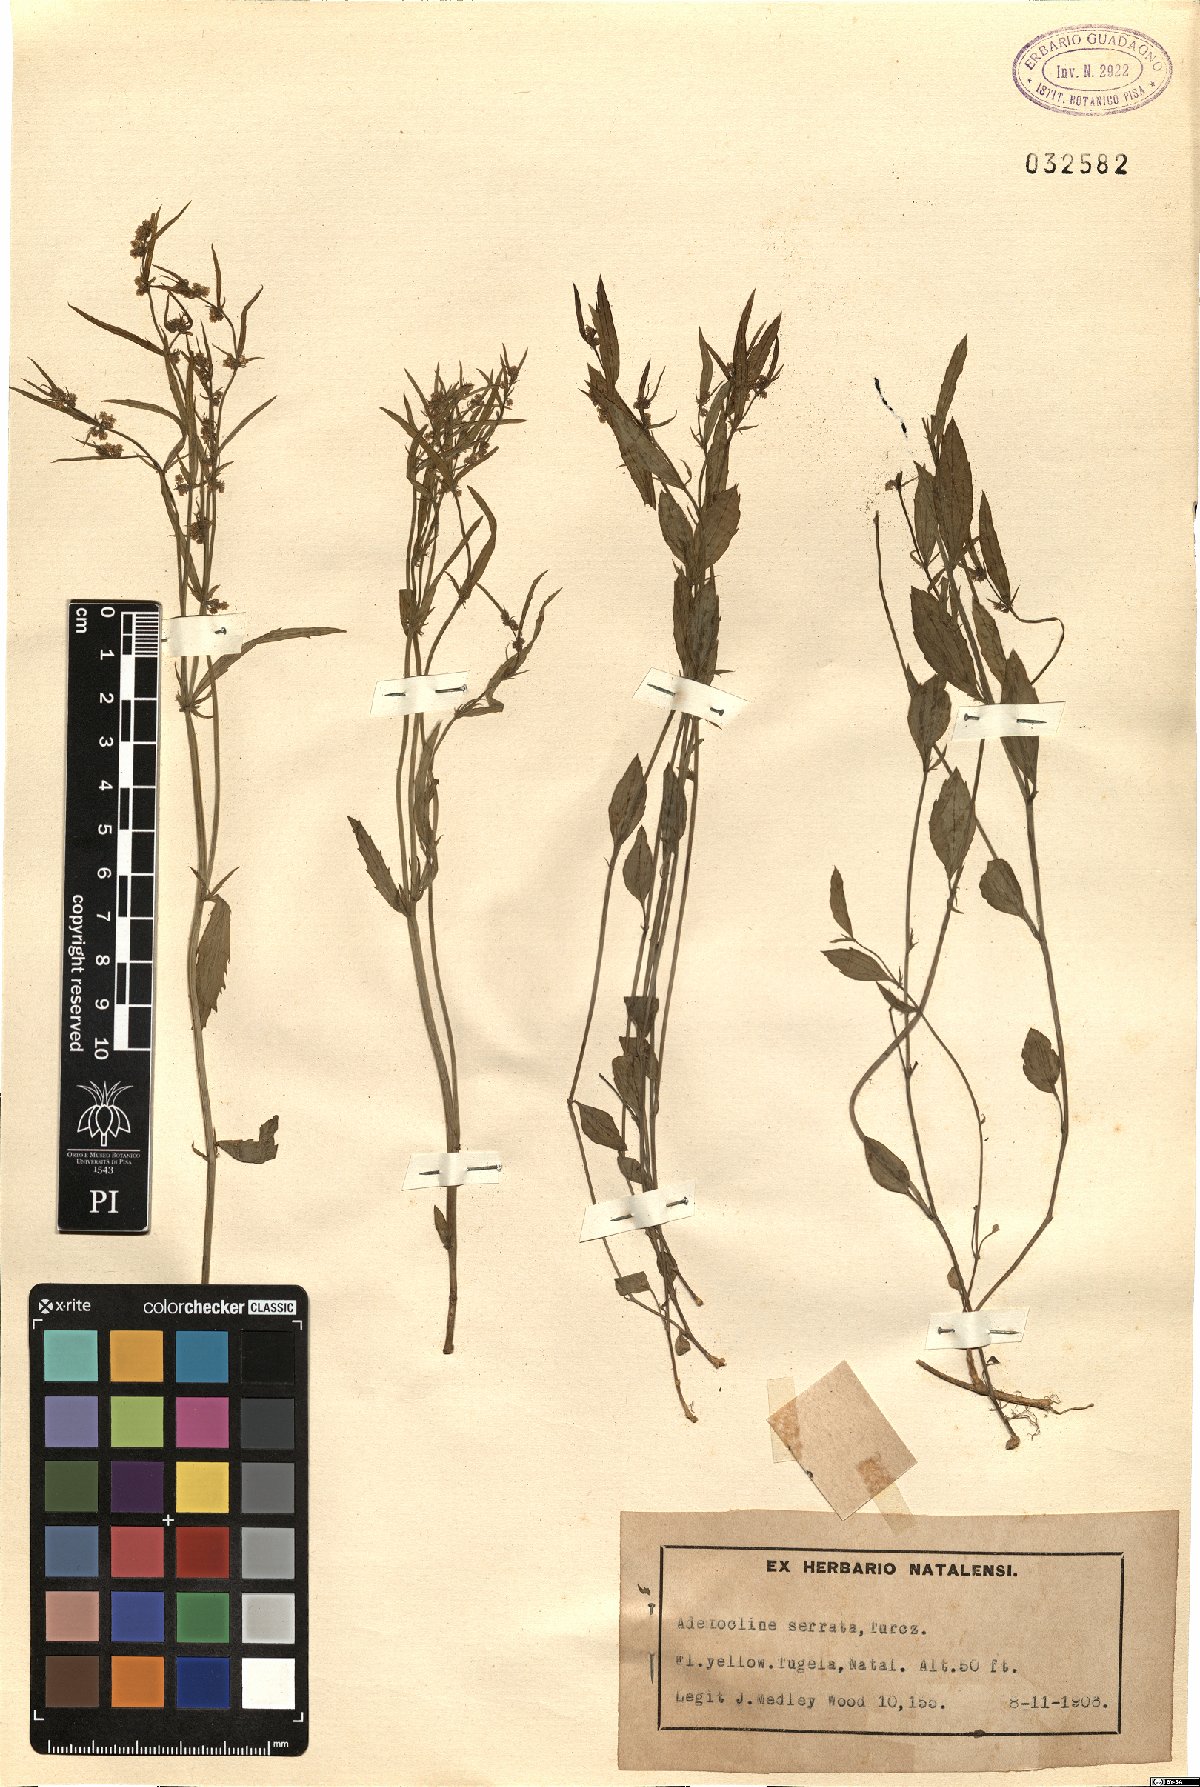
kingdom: Plantae
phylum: Tracheophyta
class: Magnoliopsida
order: Malpighiales
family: Euphorbiaceae
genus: Adenocline
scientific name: Adenocline pauciflora
